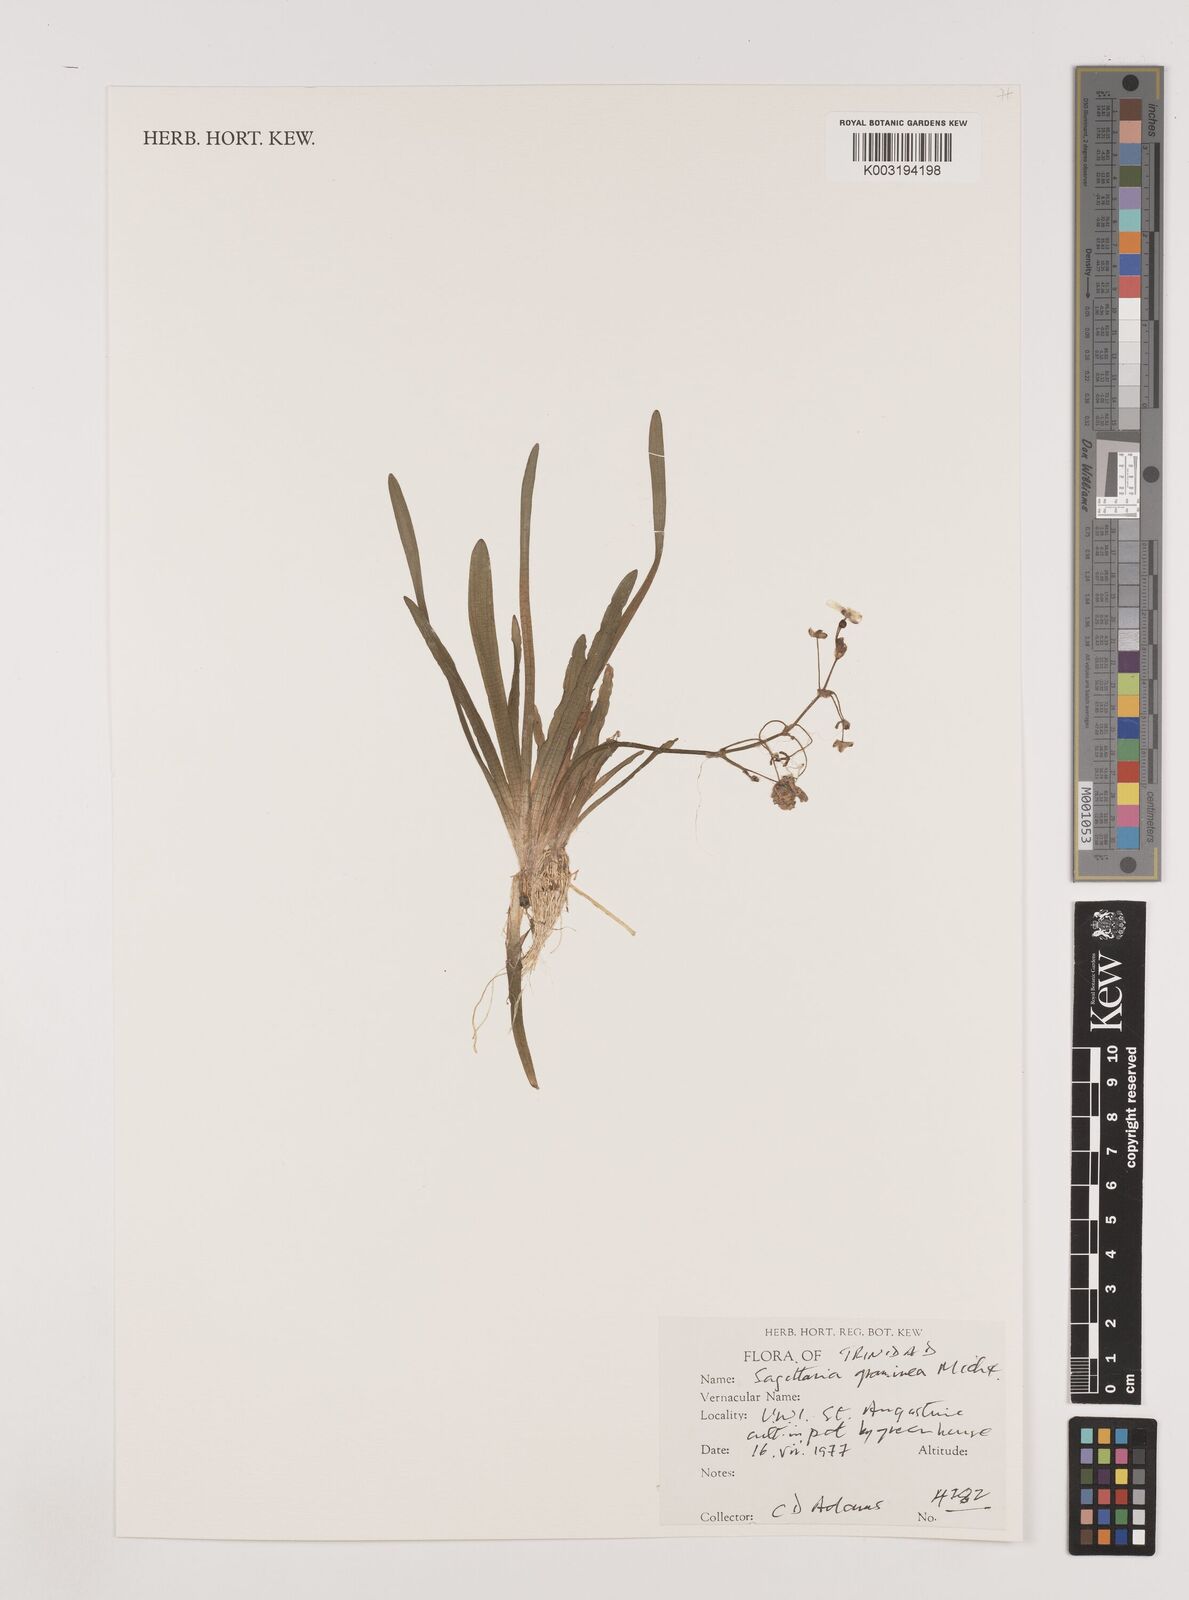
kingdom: Plantae
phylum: Tracheophyta
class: Liliopsida
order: Alismatales
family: Alismataceae
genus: Sagittaria
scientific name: Sagittaria graminea
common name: Grass-leaved arrowhead
